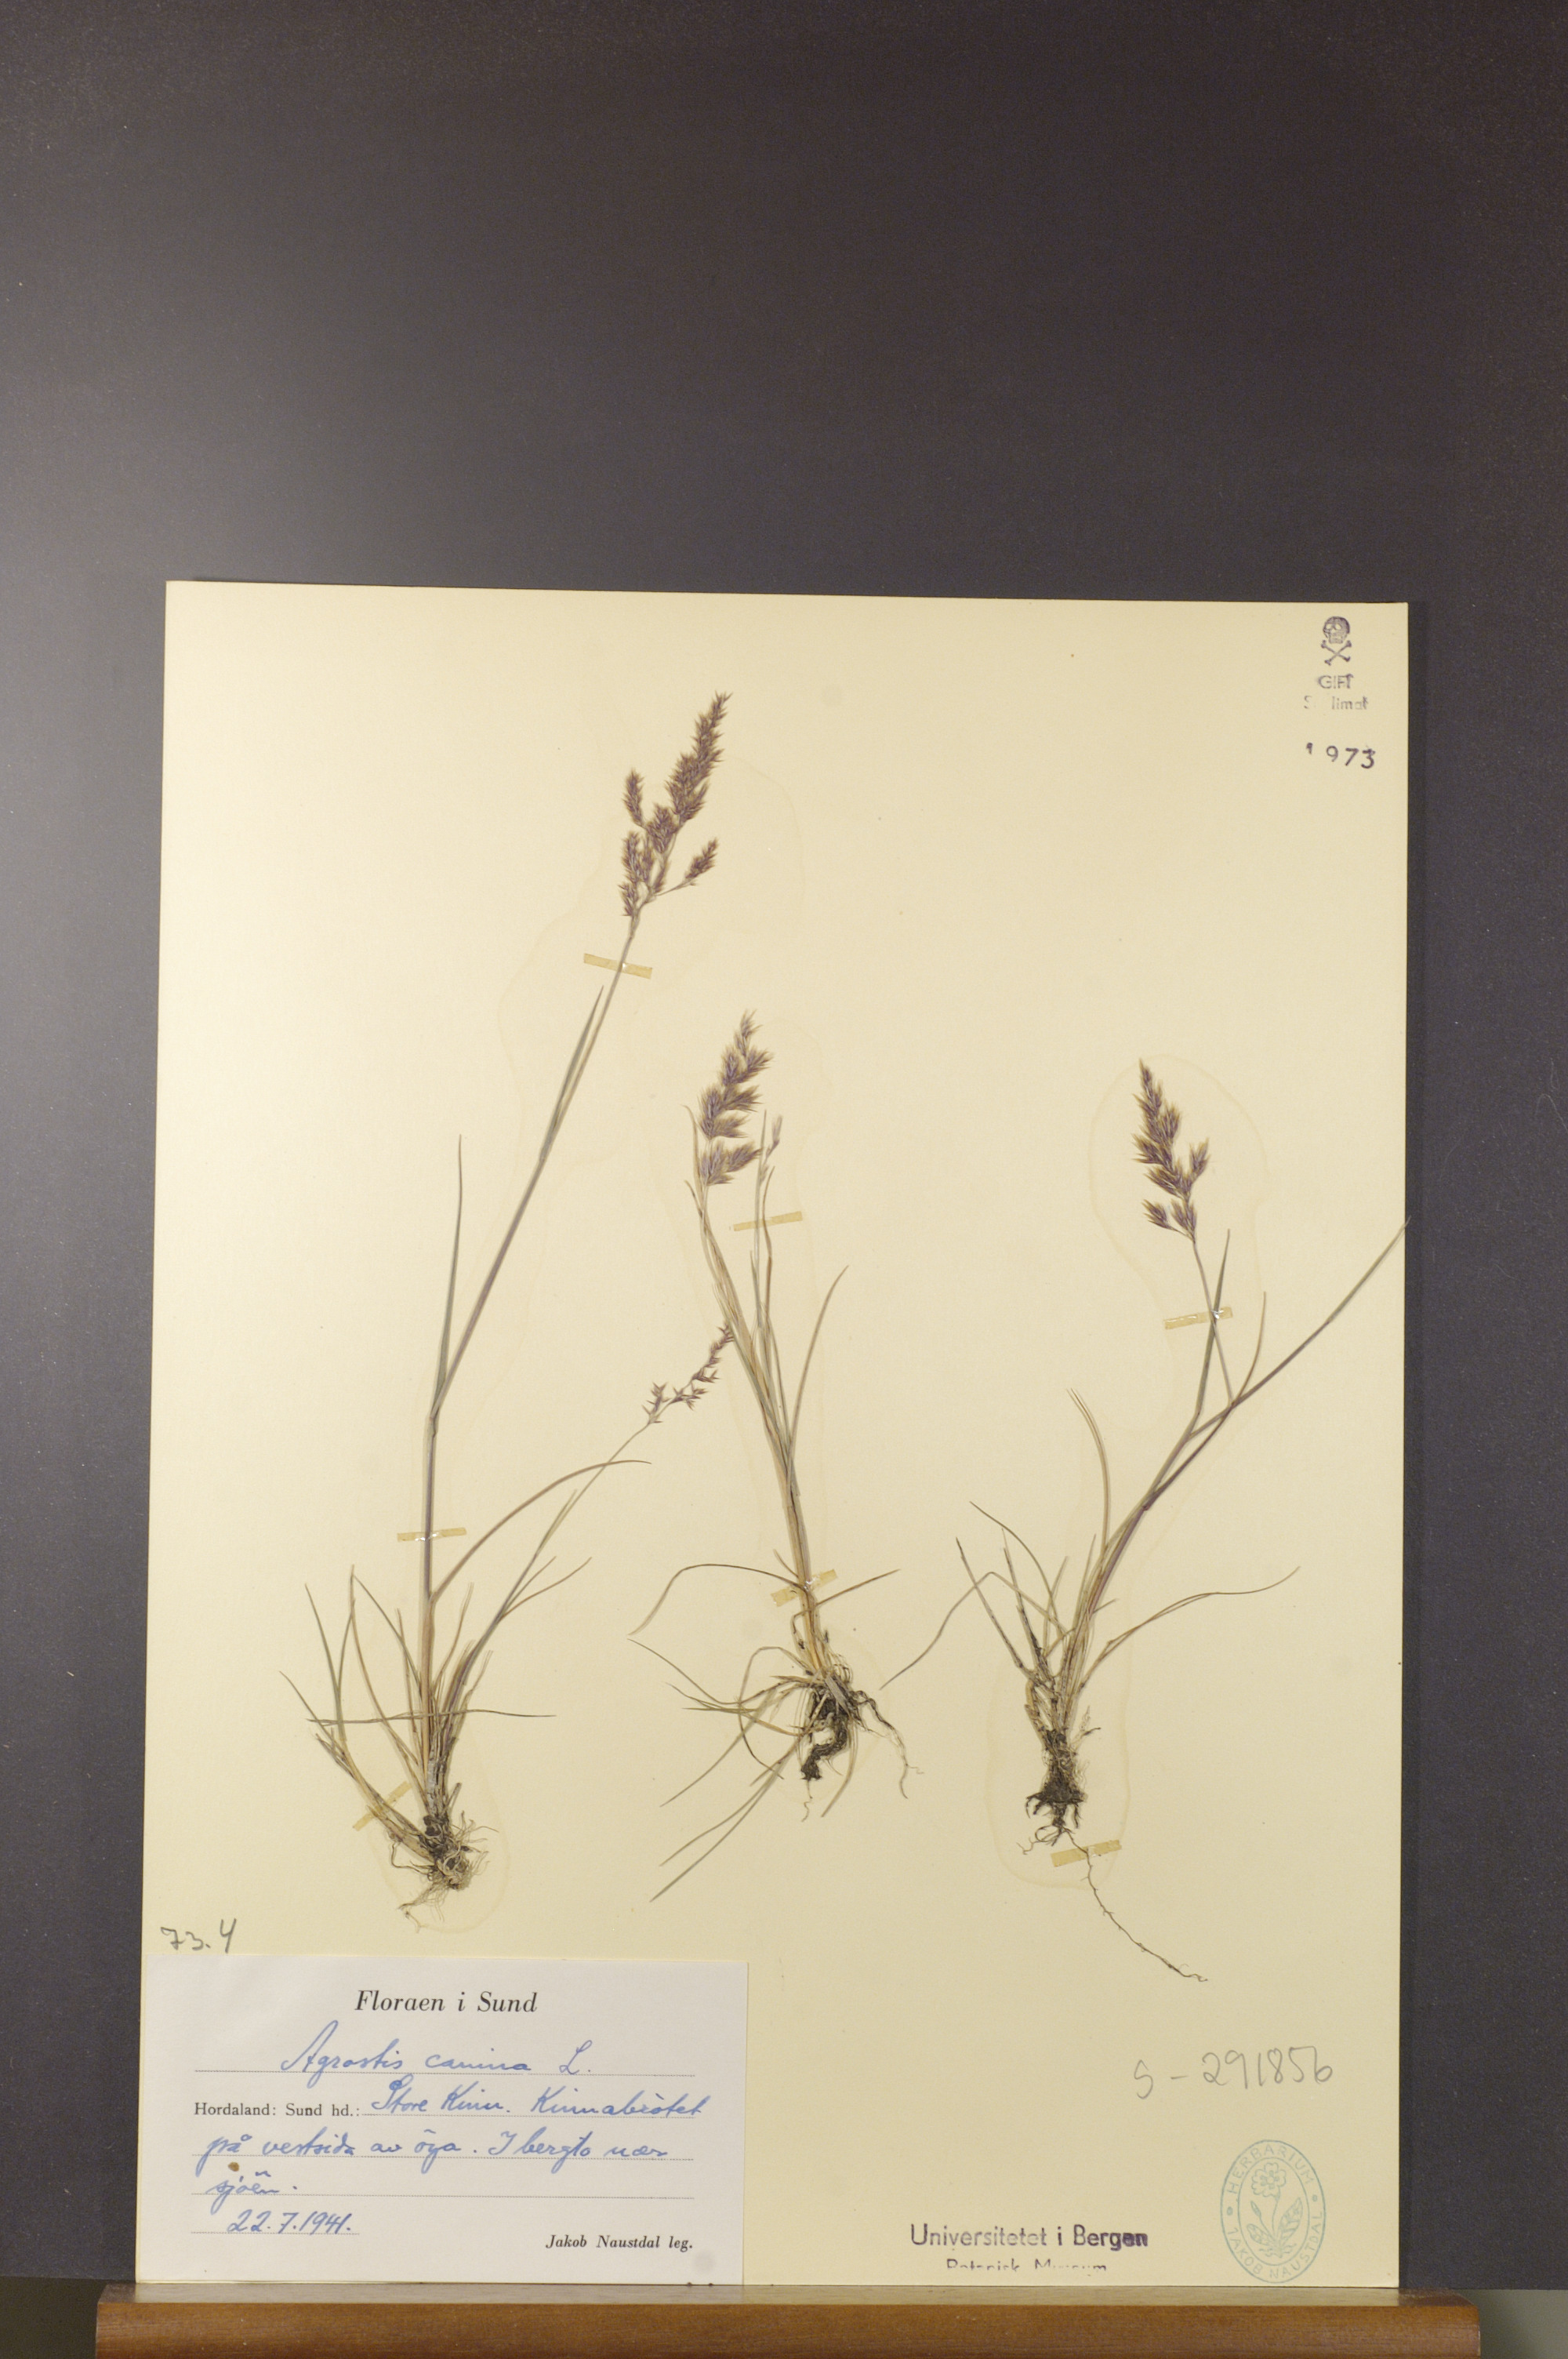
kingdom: Plantae
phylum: Tracheophyta
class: Liliopsida
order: Poales
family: Poaceae
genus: Agrostis
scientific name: Agrostis canina
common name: Velvet bent
